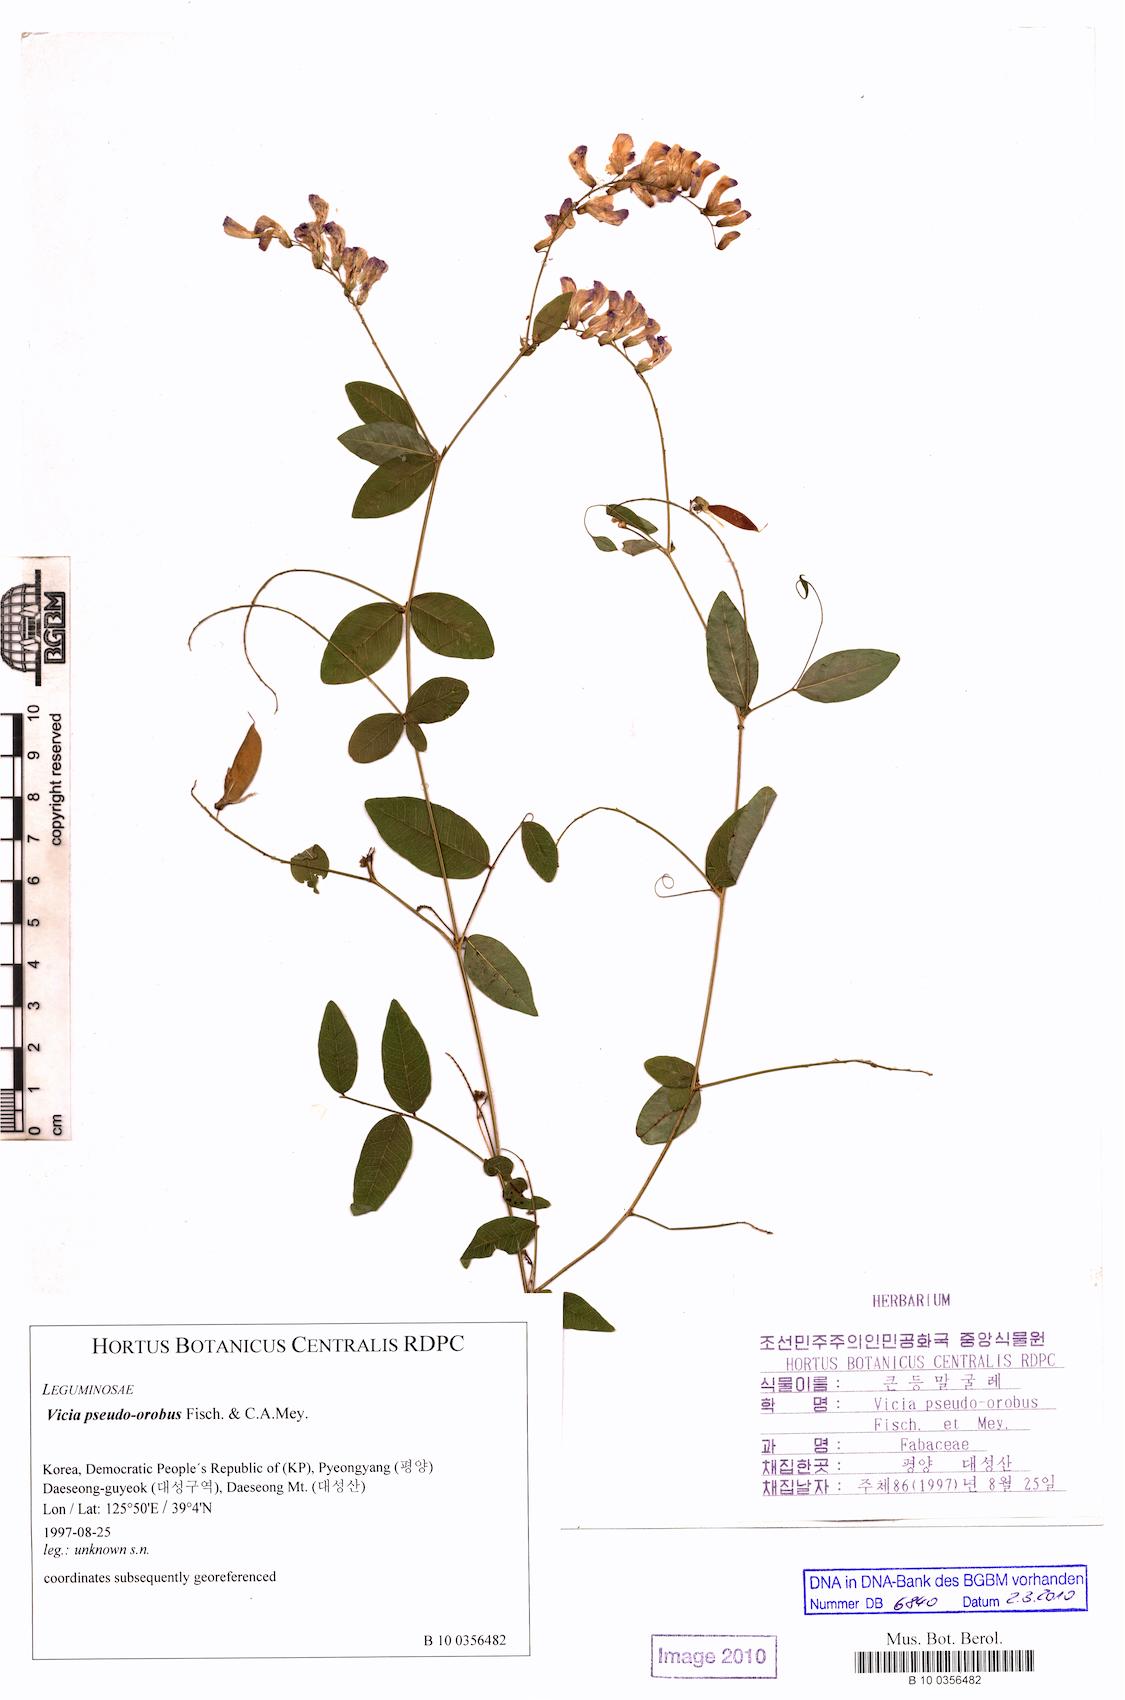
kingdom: Plantae
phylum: Tracheophyta
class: Magnoliopsida
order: Fabales
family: Fabaceae
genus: Vicia
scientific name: Vicia pseudo-orobus
